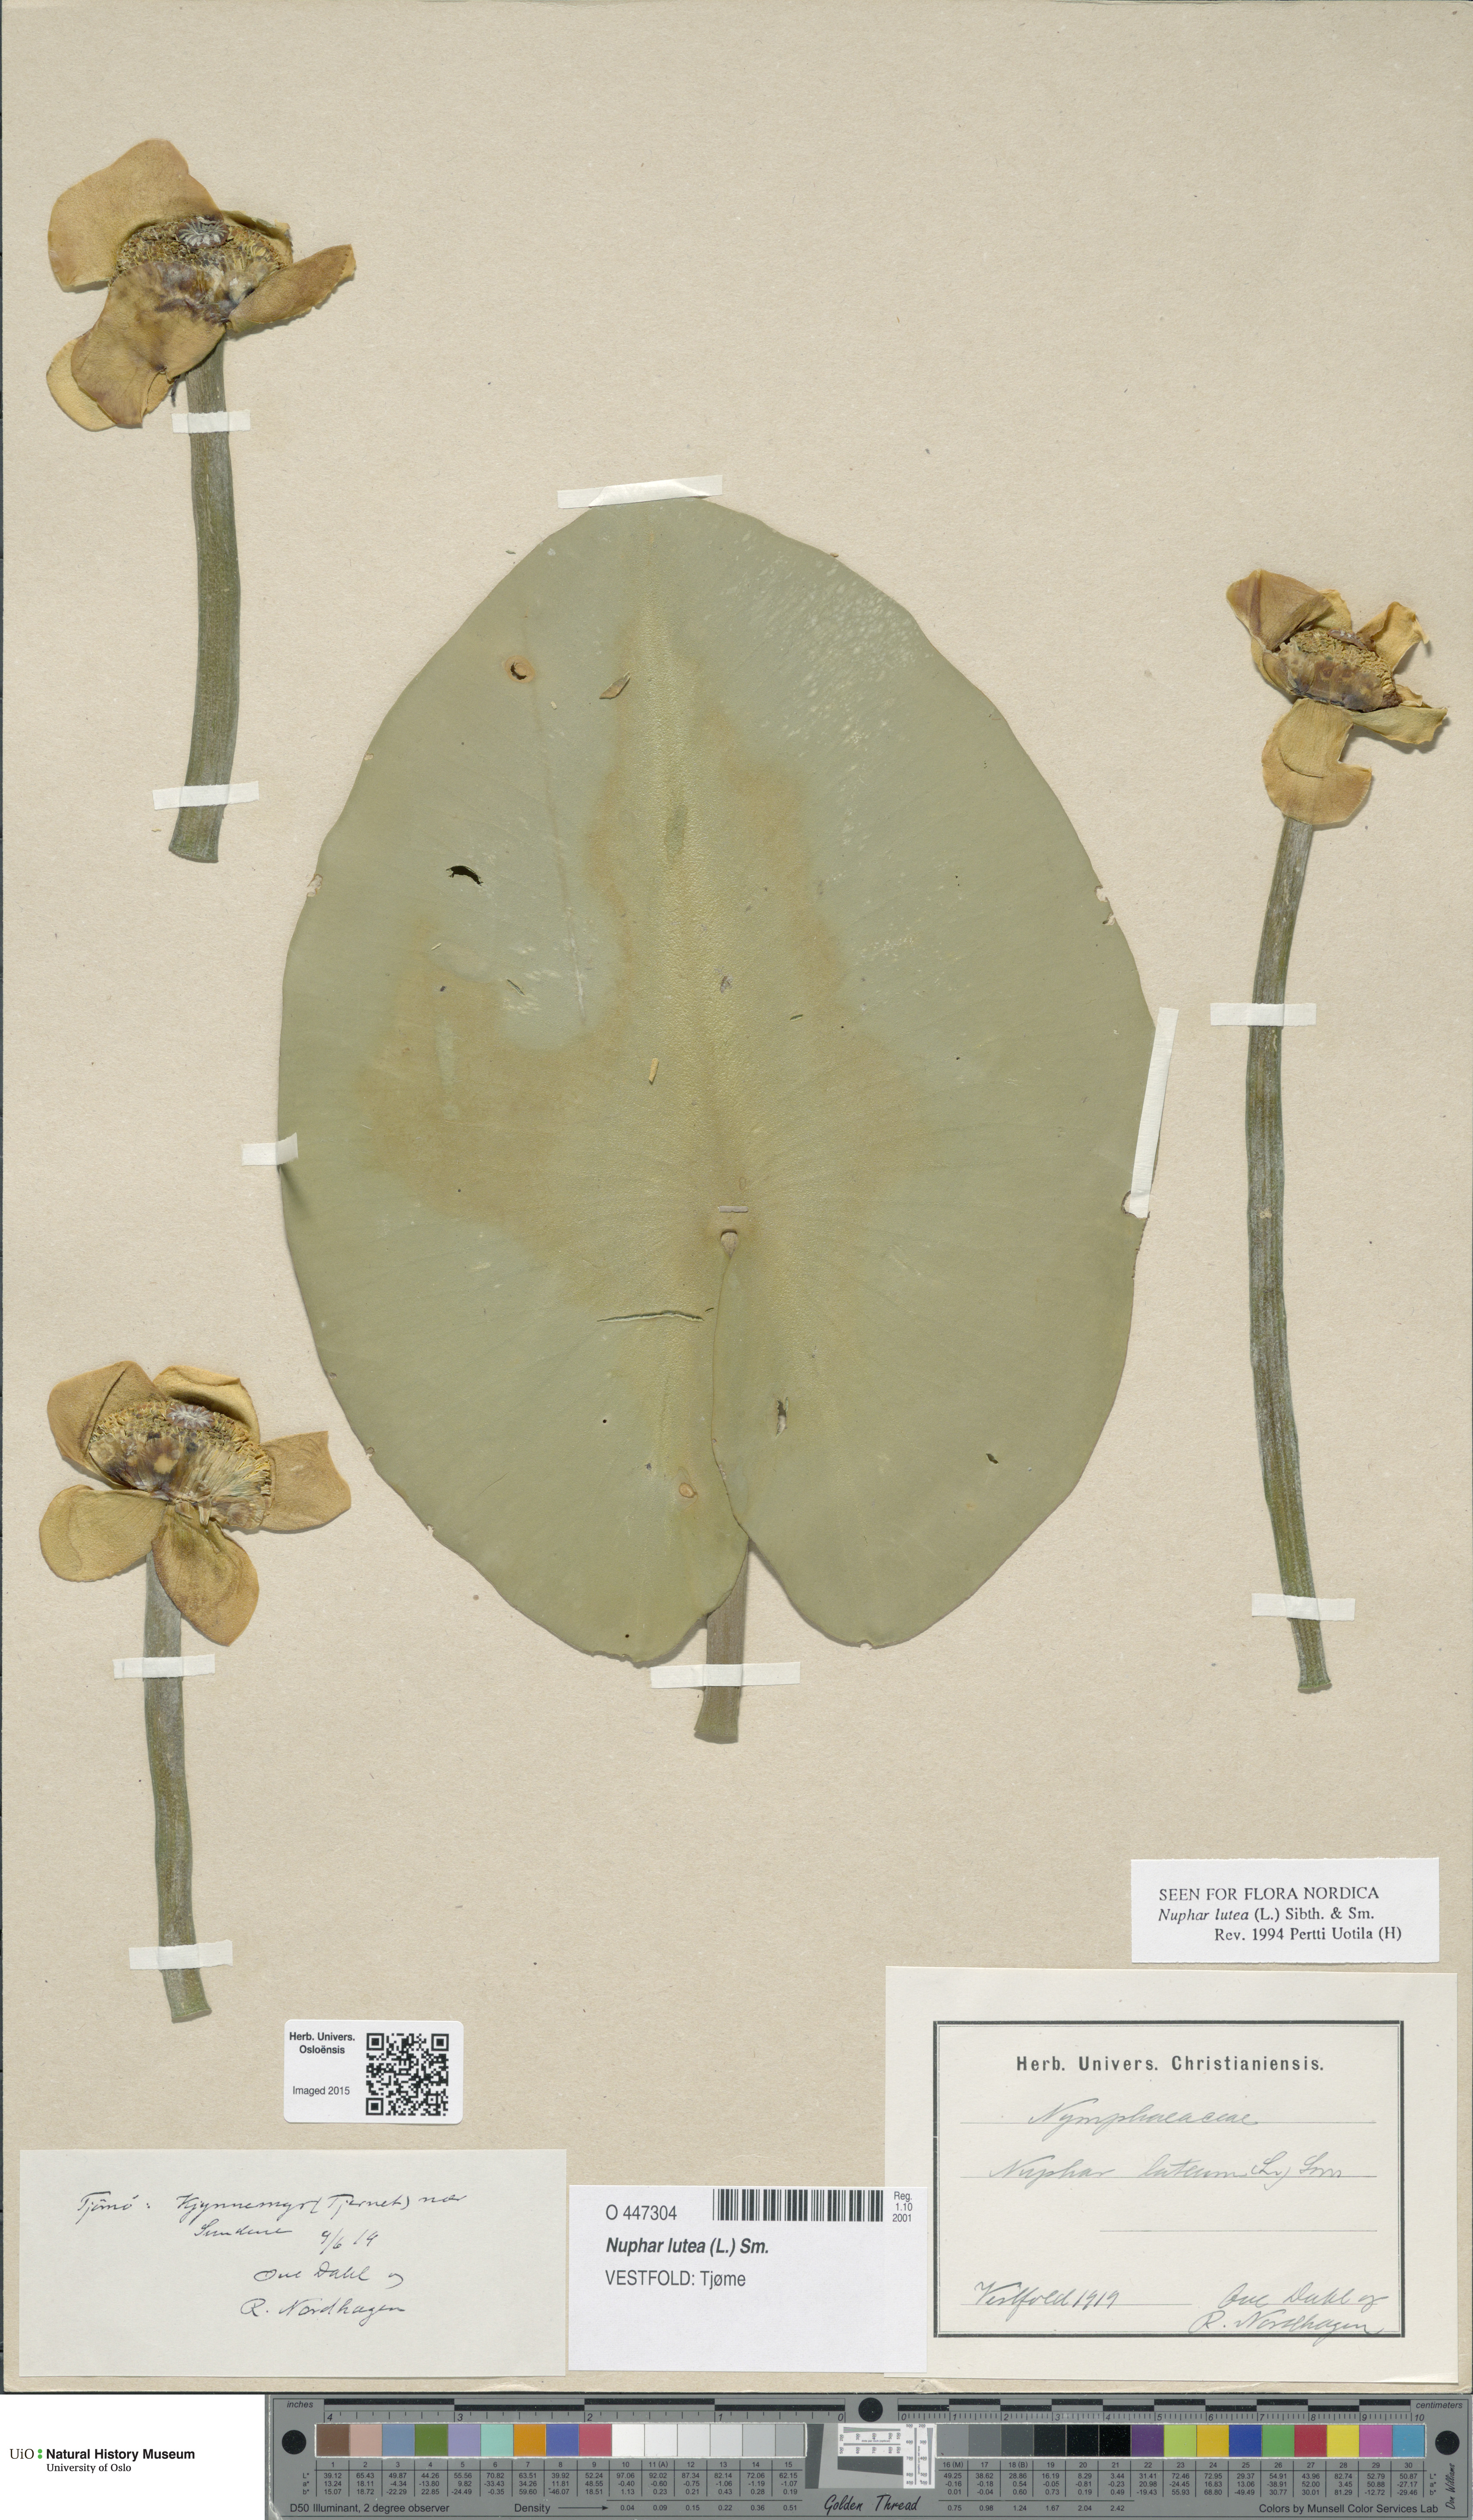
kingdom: Plantae
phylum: Tracheophyta
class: Magnoliopsida
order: Nymphaeales
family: Nymphaeaceae
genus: Nuphar
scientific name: Nuphar lutea
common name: Yellow water-lily
